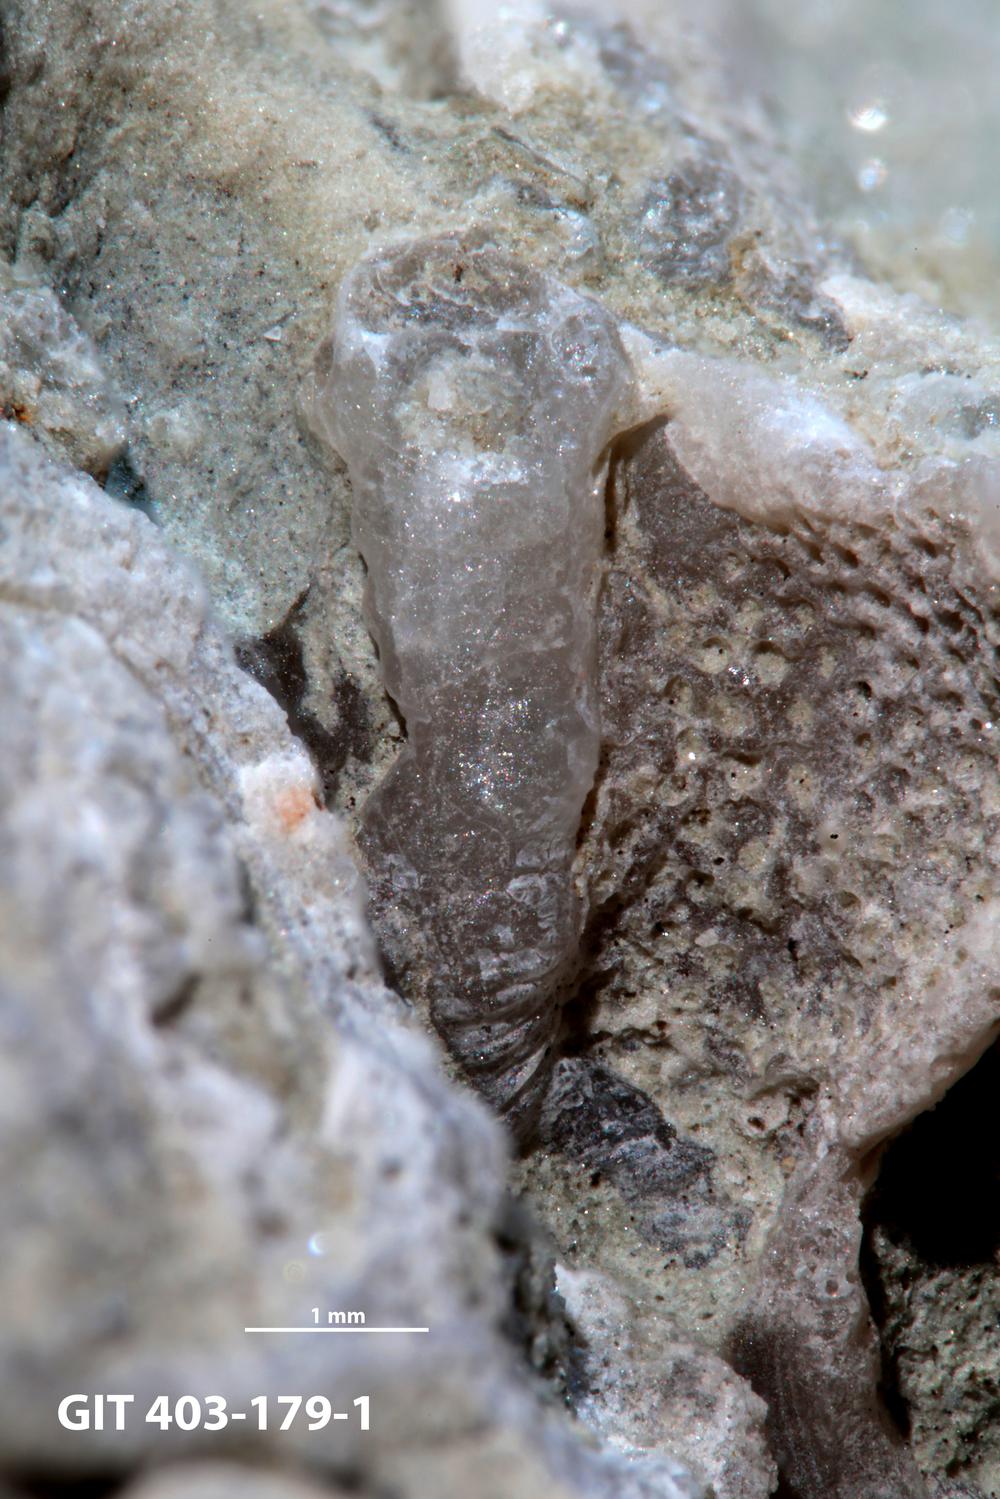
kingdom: Animalia
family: Cornulitidae
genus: Cornulites
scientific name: Cornulites
